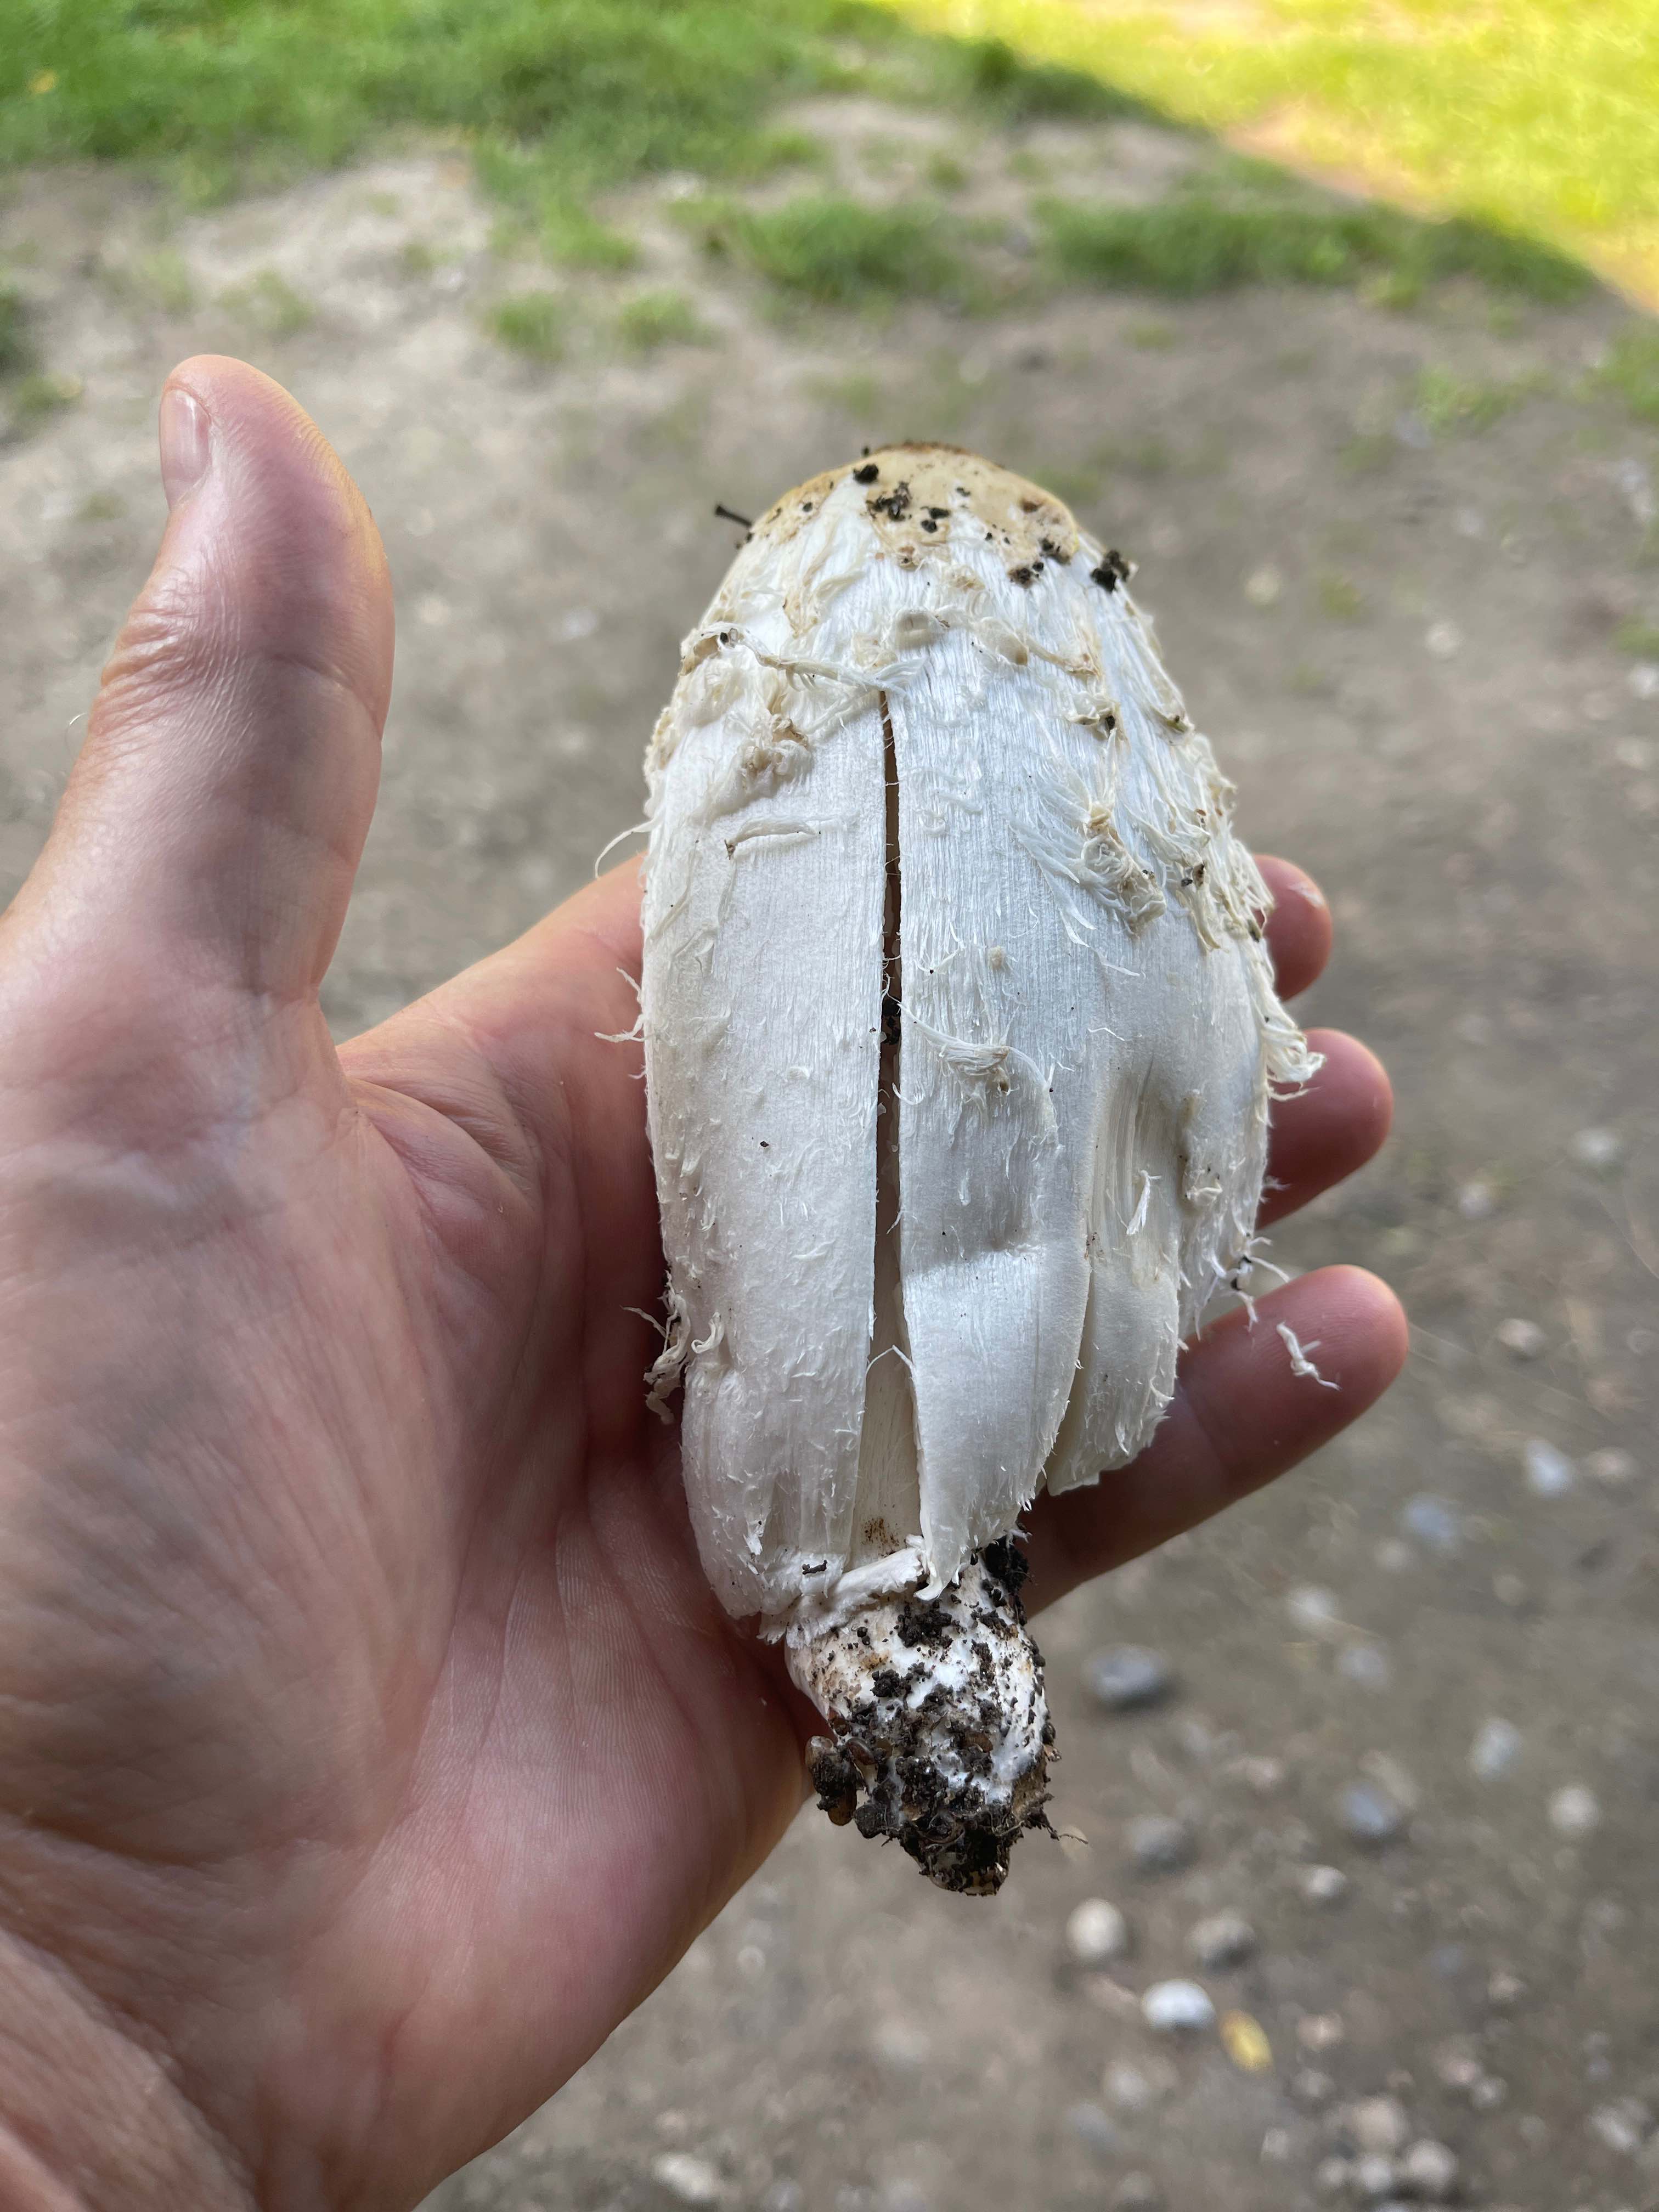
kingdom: Fungi
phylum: Basidiomycota
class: Agaricomycetes
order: Agaricales
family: Agaricaceae
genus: Coprinus
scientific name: Coprinus comatus
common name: stor parykhat
